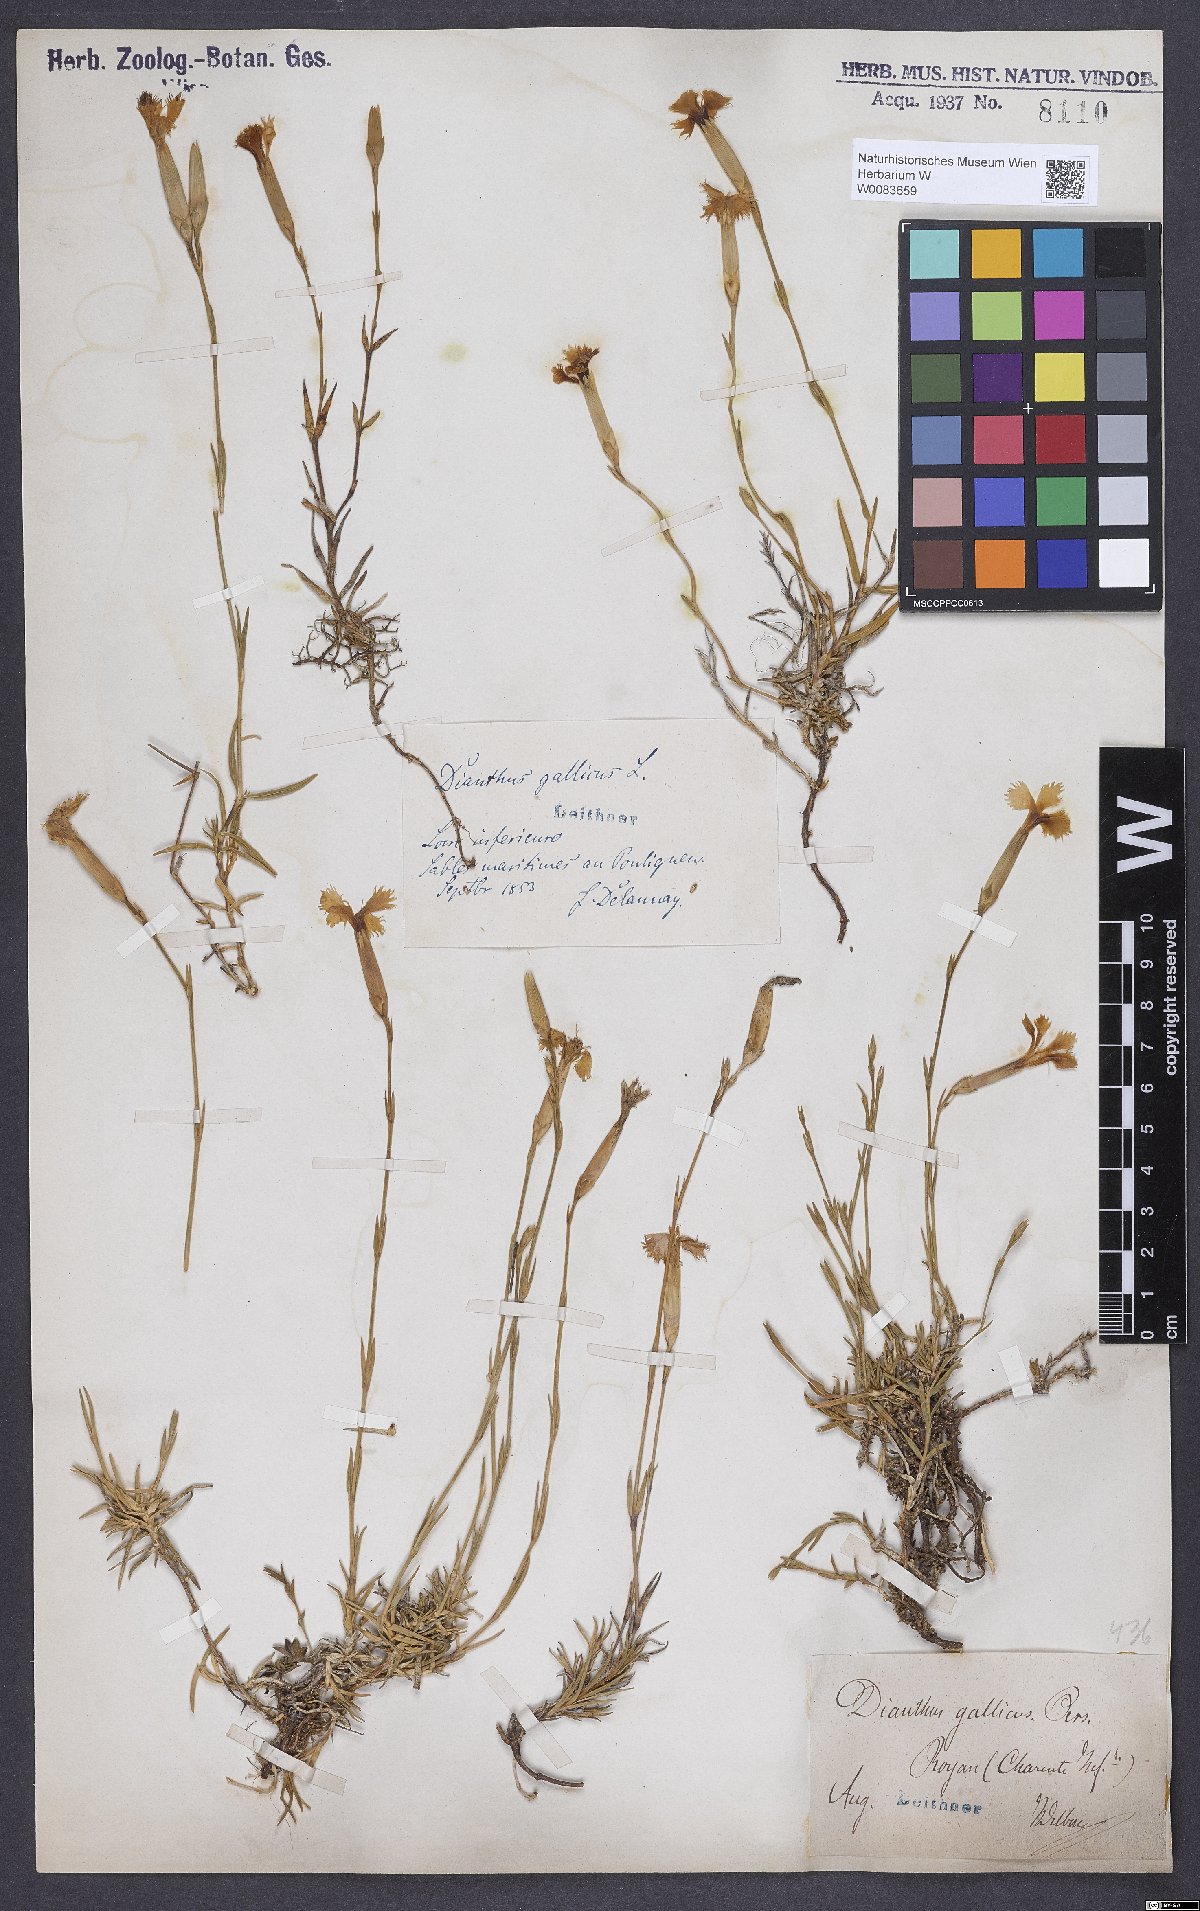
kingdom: Plantae
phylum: Tracheophyta
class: Magnoliopsida
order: Caryophyllales
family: Caryophyllaceae
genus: Dianthus
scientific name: Dianthus gallicus
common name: Jersey pink
